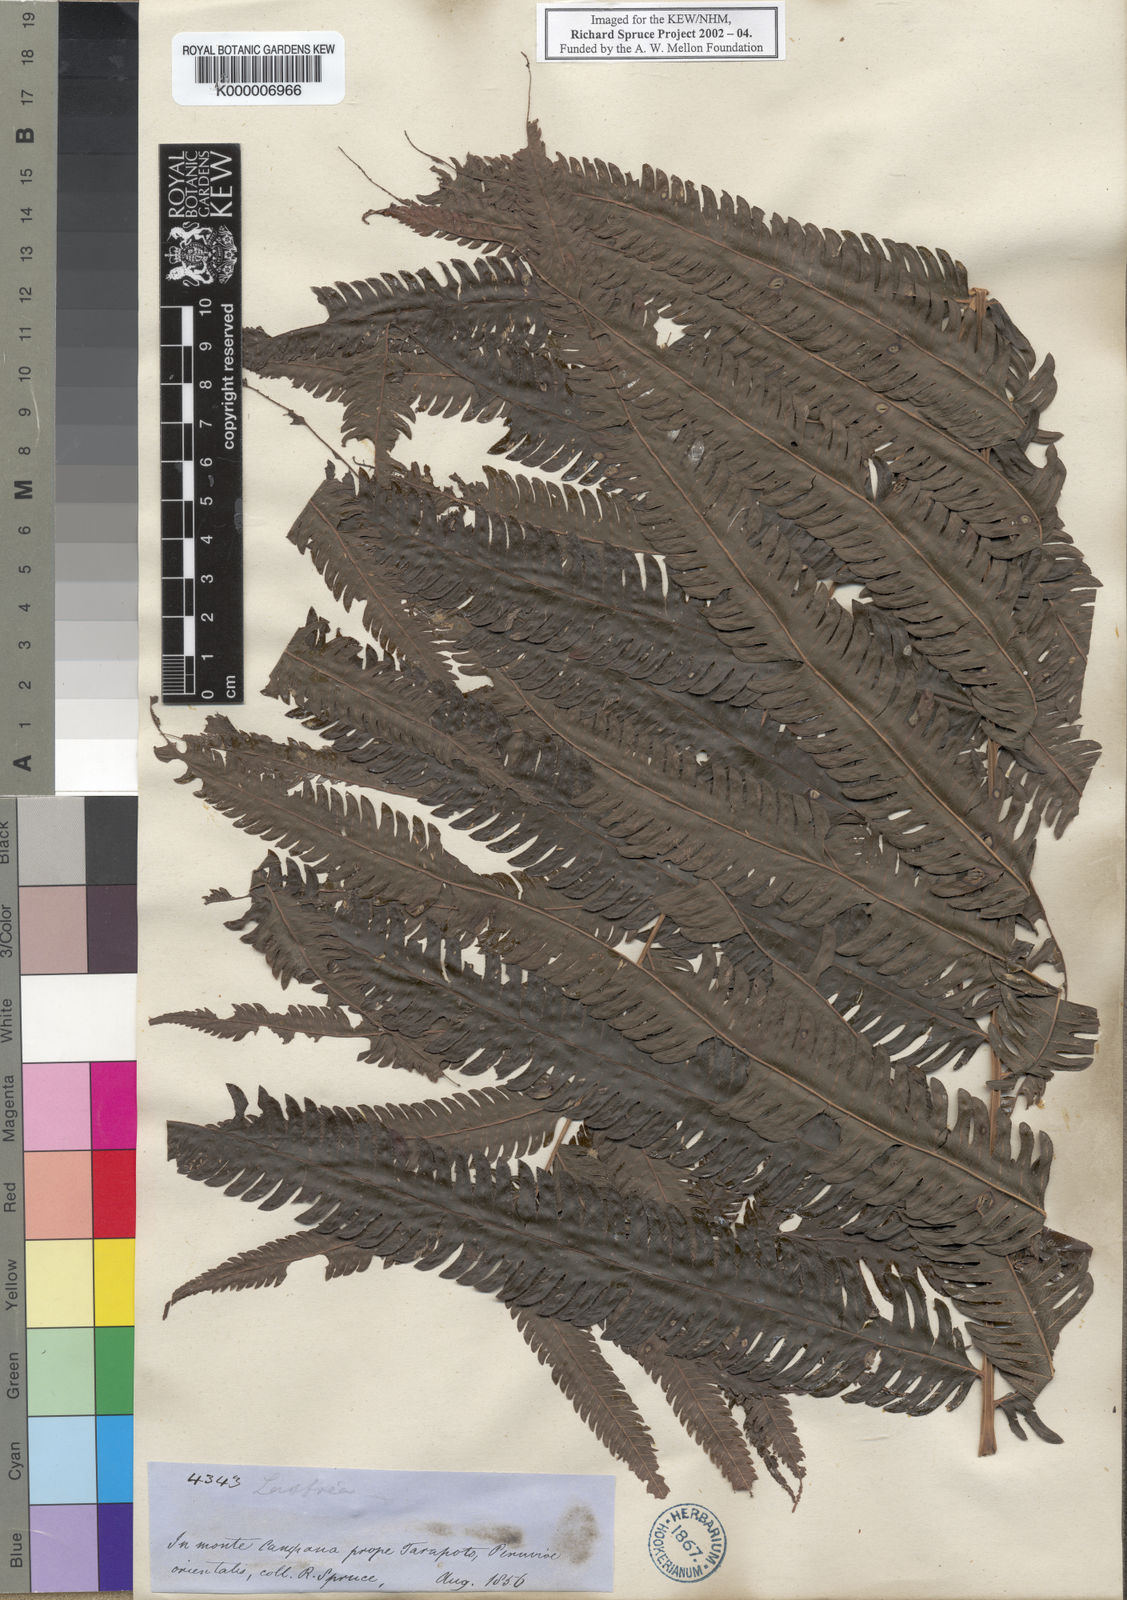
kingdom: Plantae
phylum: Tracheophyta
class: Polypodiopsida
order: Polypodiales
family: Polypodiaceae
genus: Goniophlebium
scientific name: Goniophlebium
